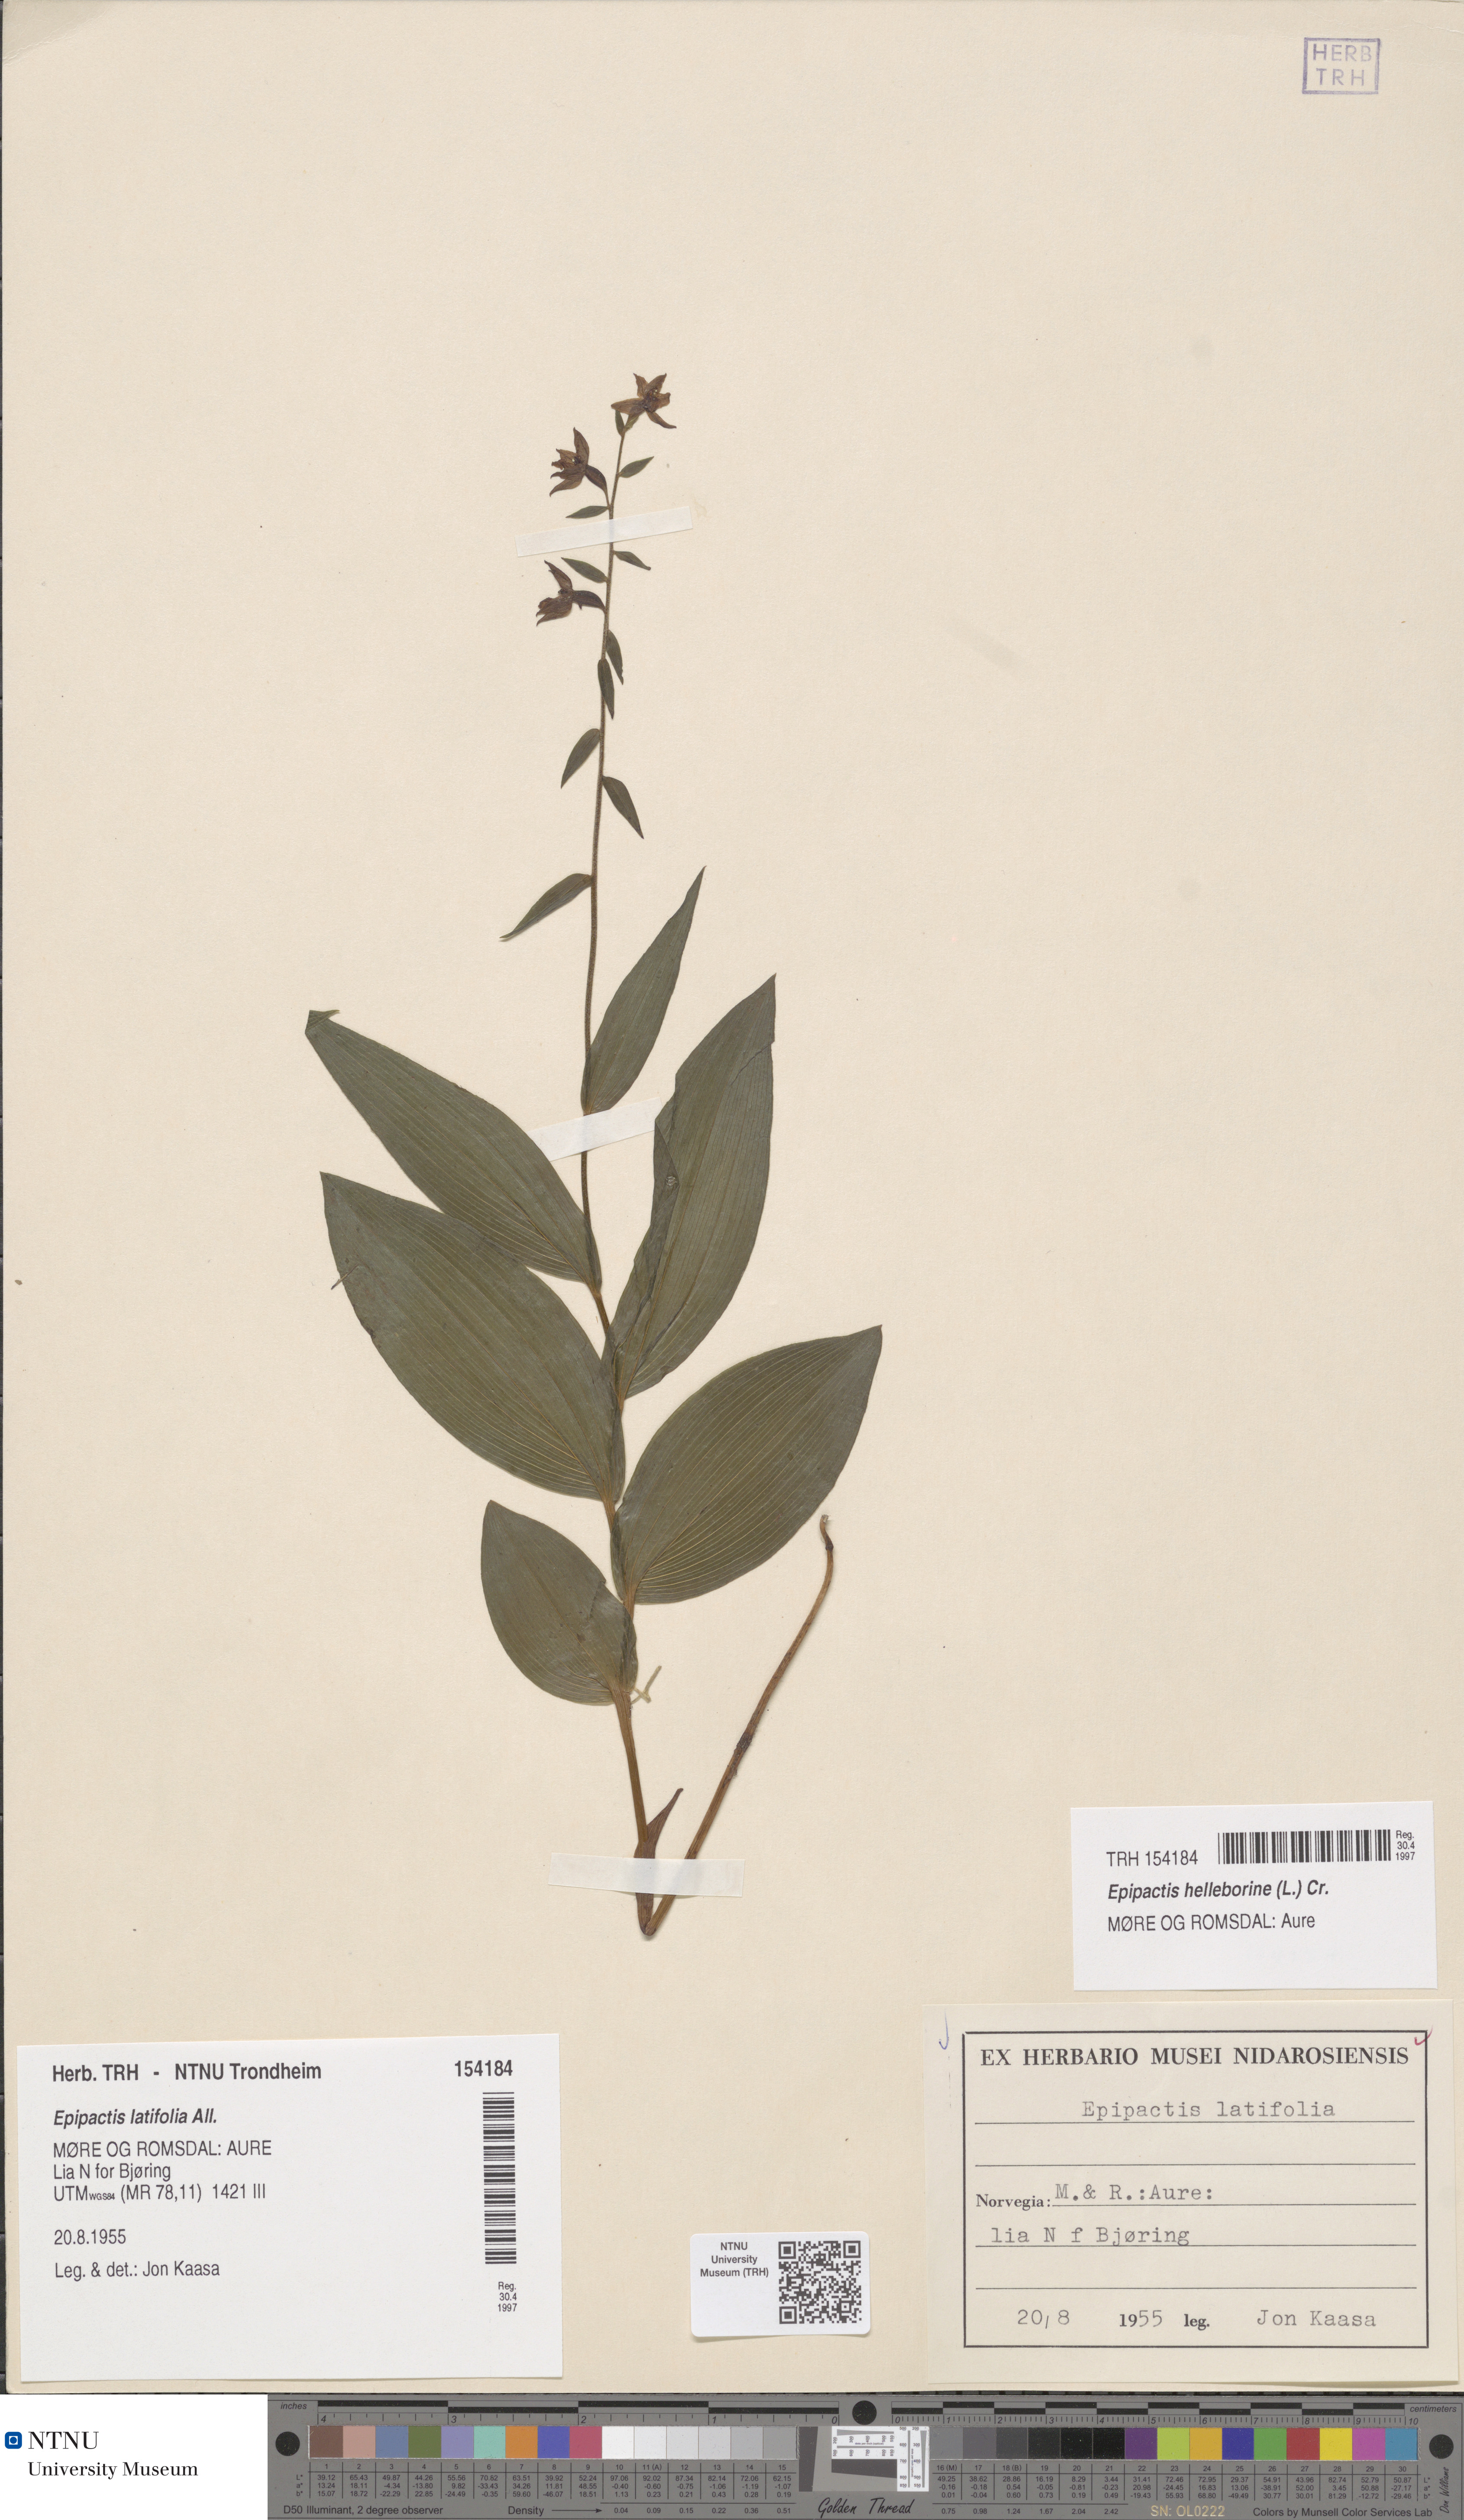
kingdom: Plantae
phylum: Tracheophyta
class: Liliopsida
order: Asparagales
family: Orchidaceae
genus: Epipactis
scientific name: Epipactis helleborine
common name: Broad-leaved helleborine
